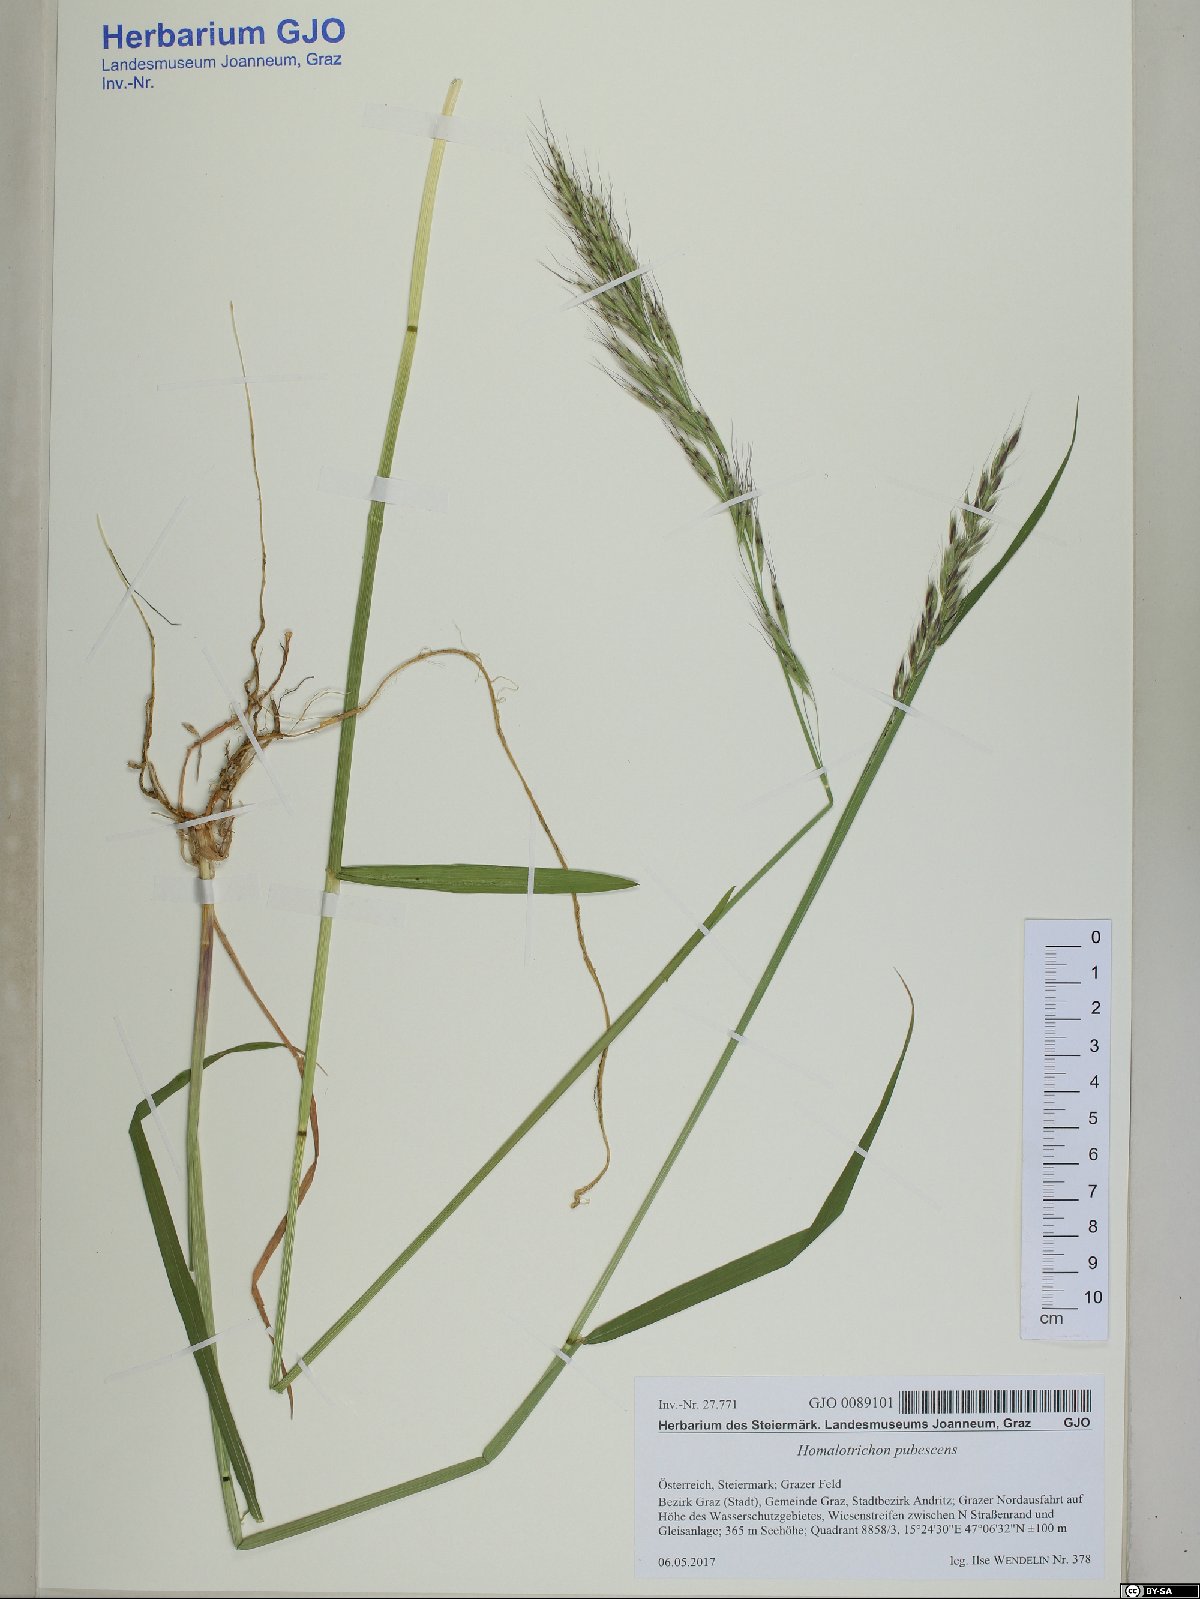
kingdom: Plantae
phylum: Tracheophyta
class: Liliopsida
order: Poales
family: Poaceae
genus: Avenula
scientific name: Avenula pubescens
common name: Downy alpine oatgrass
